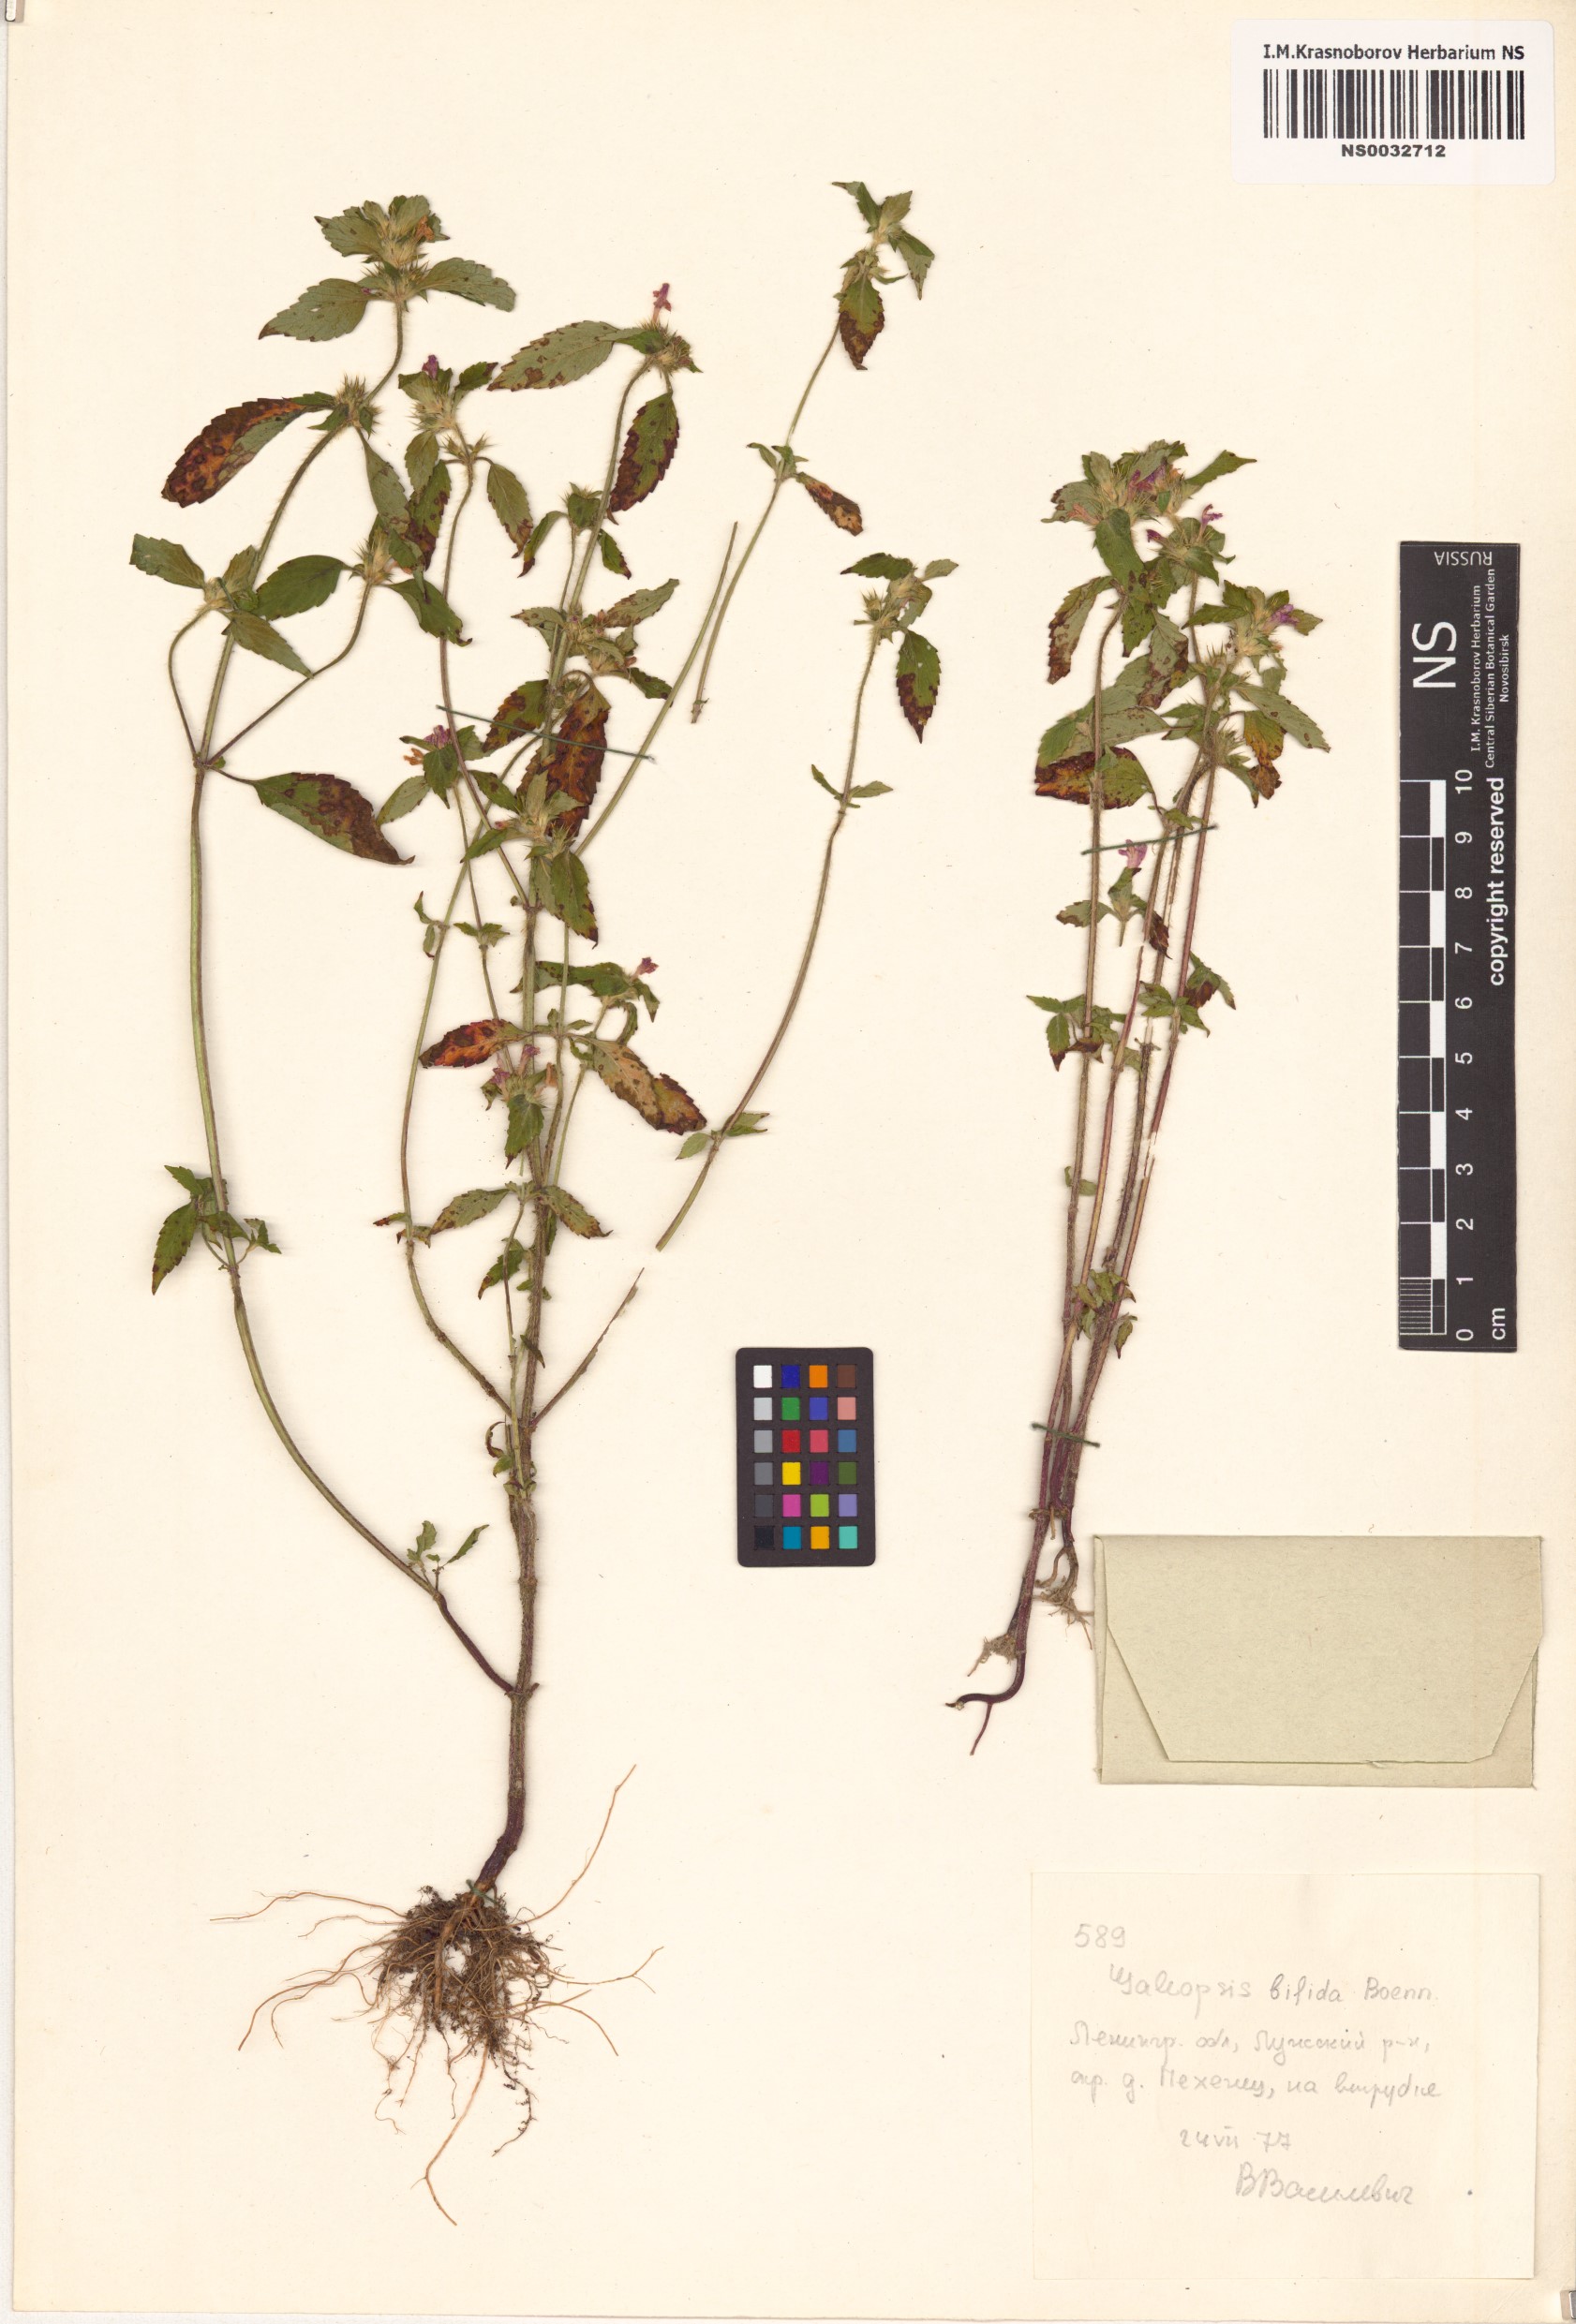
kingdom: Plantae
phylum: Tracheophyta
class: Magnoliopsida
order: Lamiales
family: Lamiaceae
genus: Galeopsis
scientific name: Galeopsis bifida
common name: Bifid hemp-nettle
